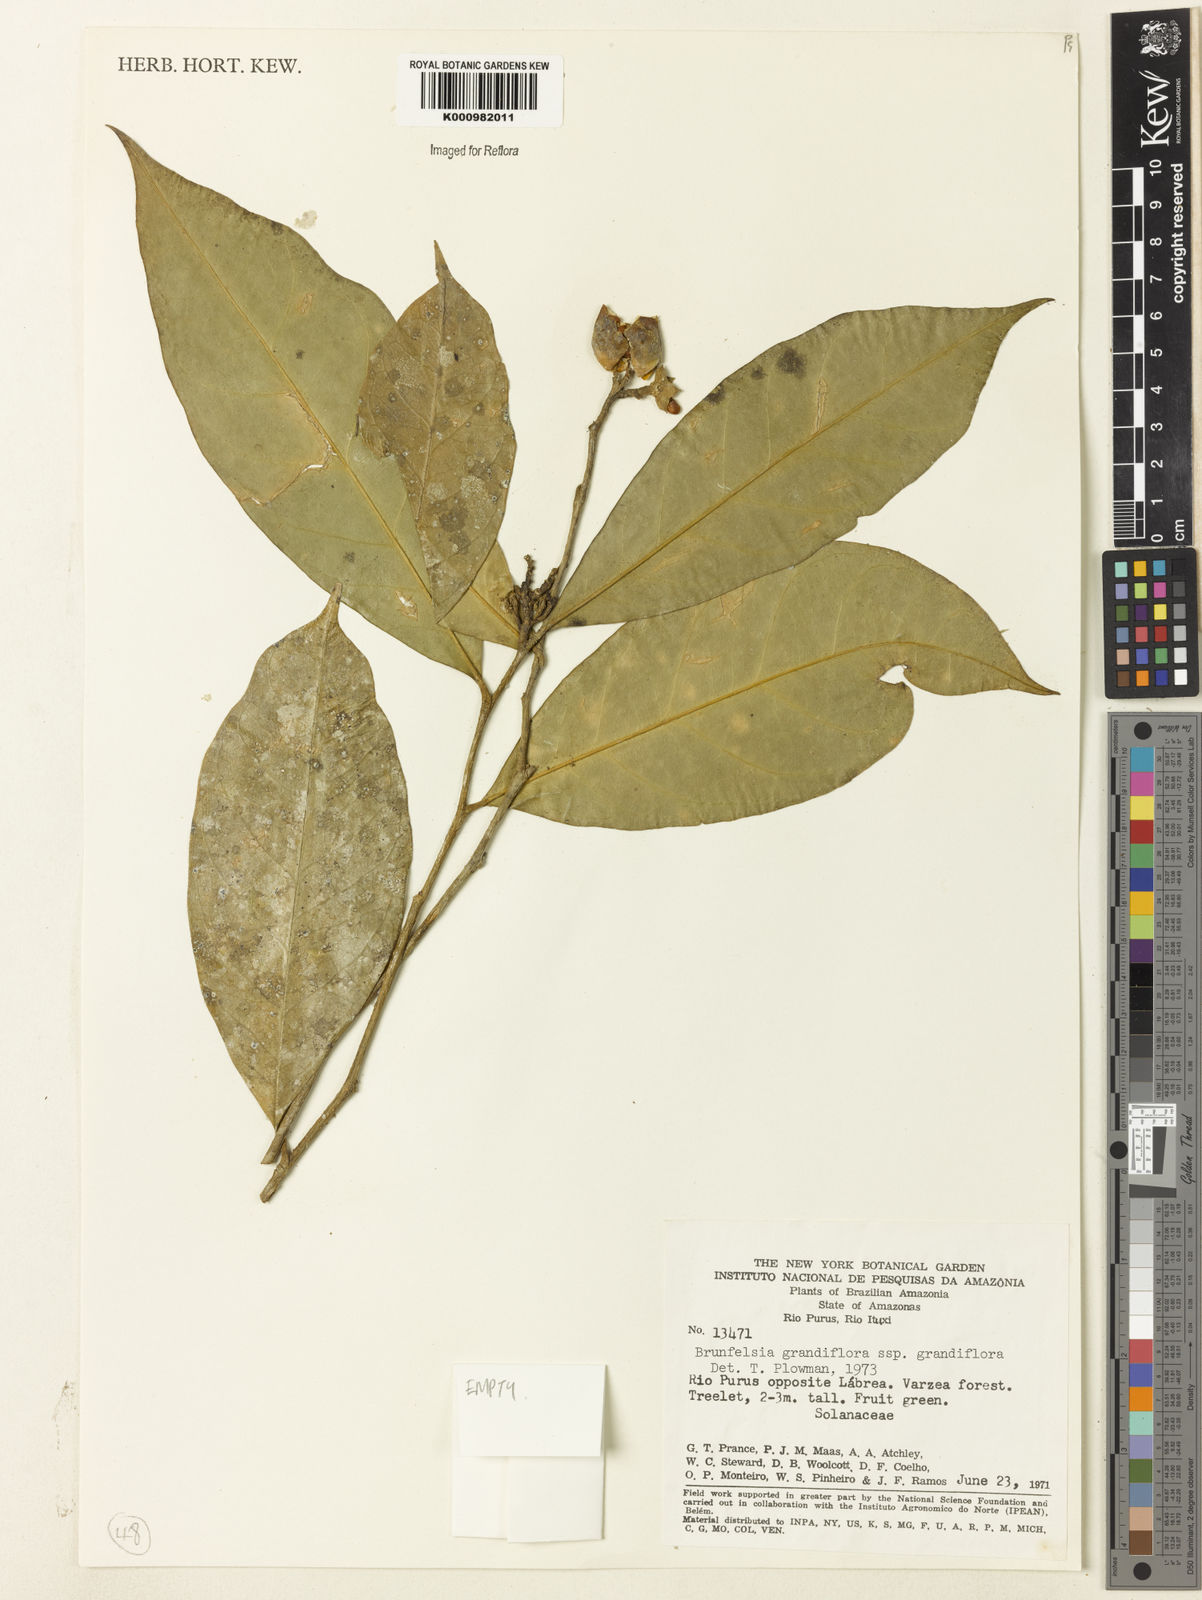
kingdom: Plantae
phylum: Tracheophyta
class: Magnoliopsida
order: Solanales
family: Solanaceae
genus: Brunfelsia
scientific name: Brunfelsia grandiflora
